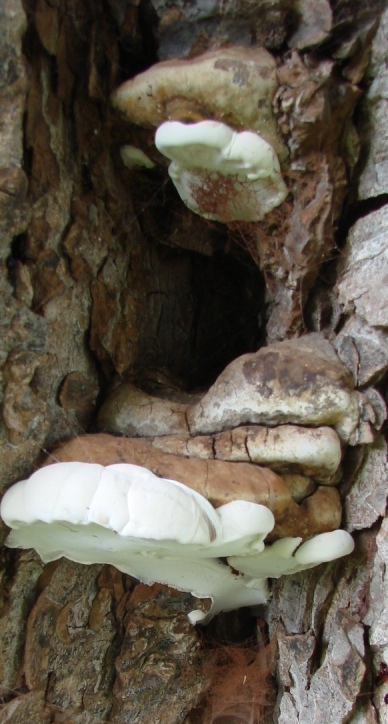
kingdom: Fungi
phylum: Basidiomycota
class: Agaricomycetes
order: Polyporales
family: Polyporaceae
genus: Ganoderma
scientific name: Ganoderma adspersum
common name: grov lakporesvamp
